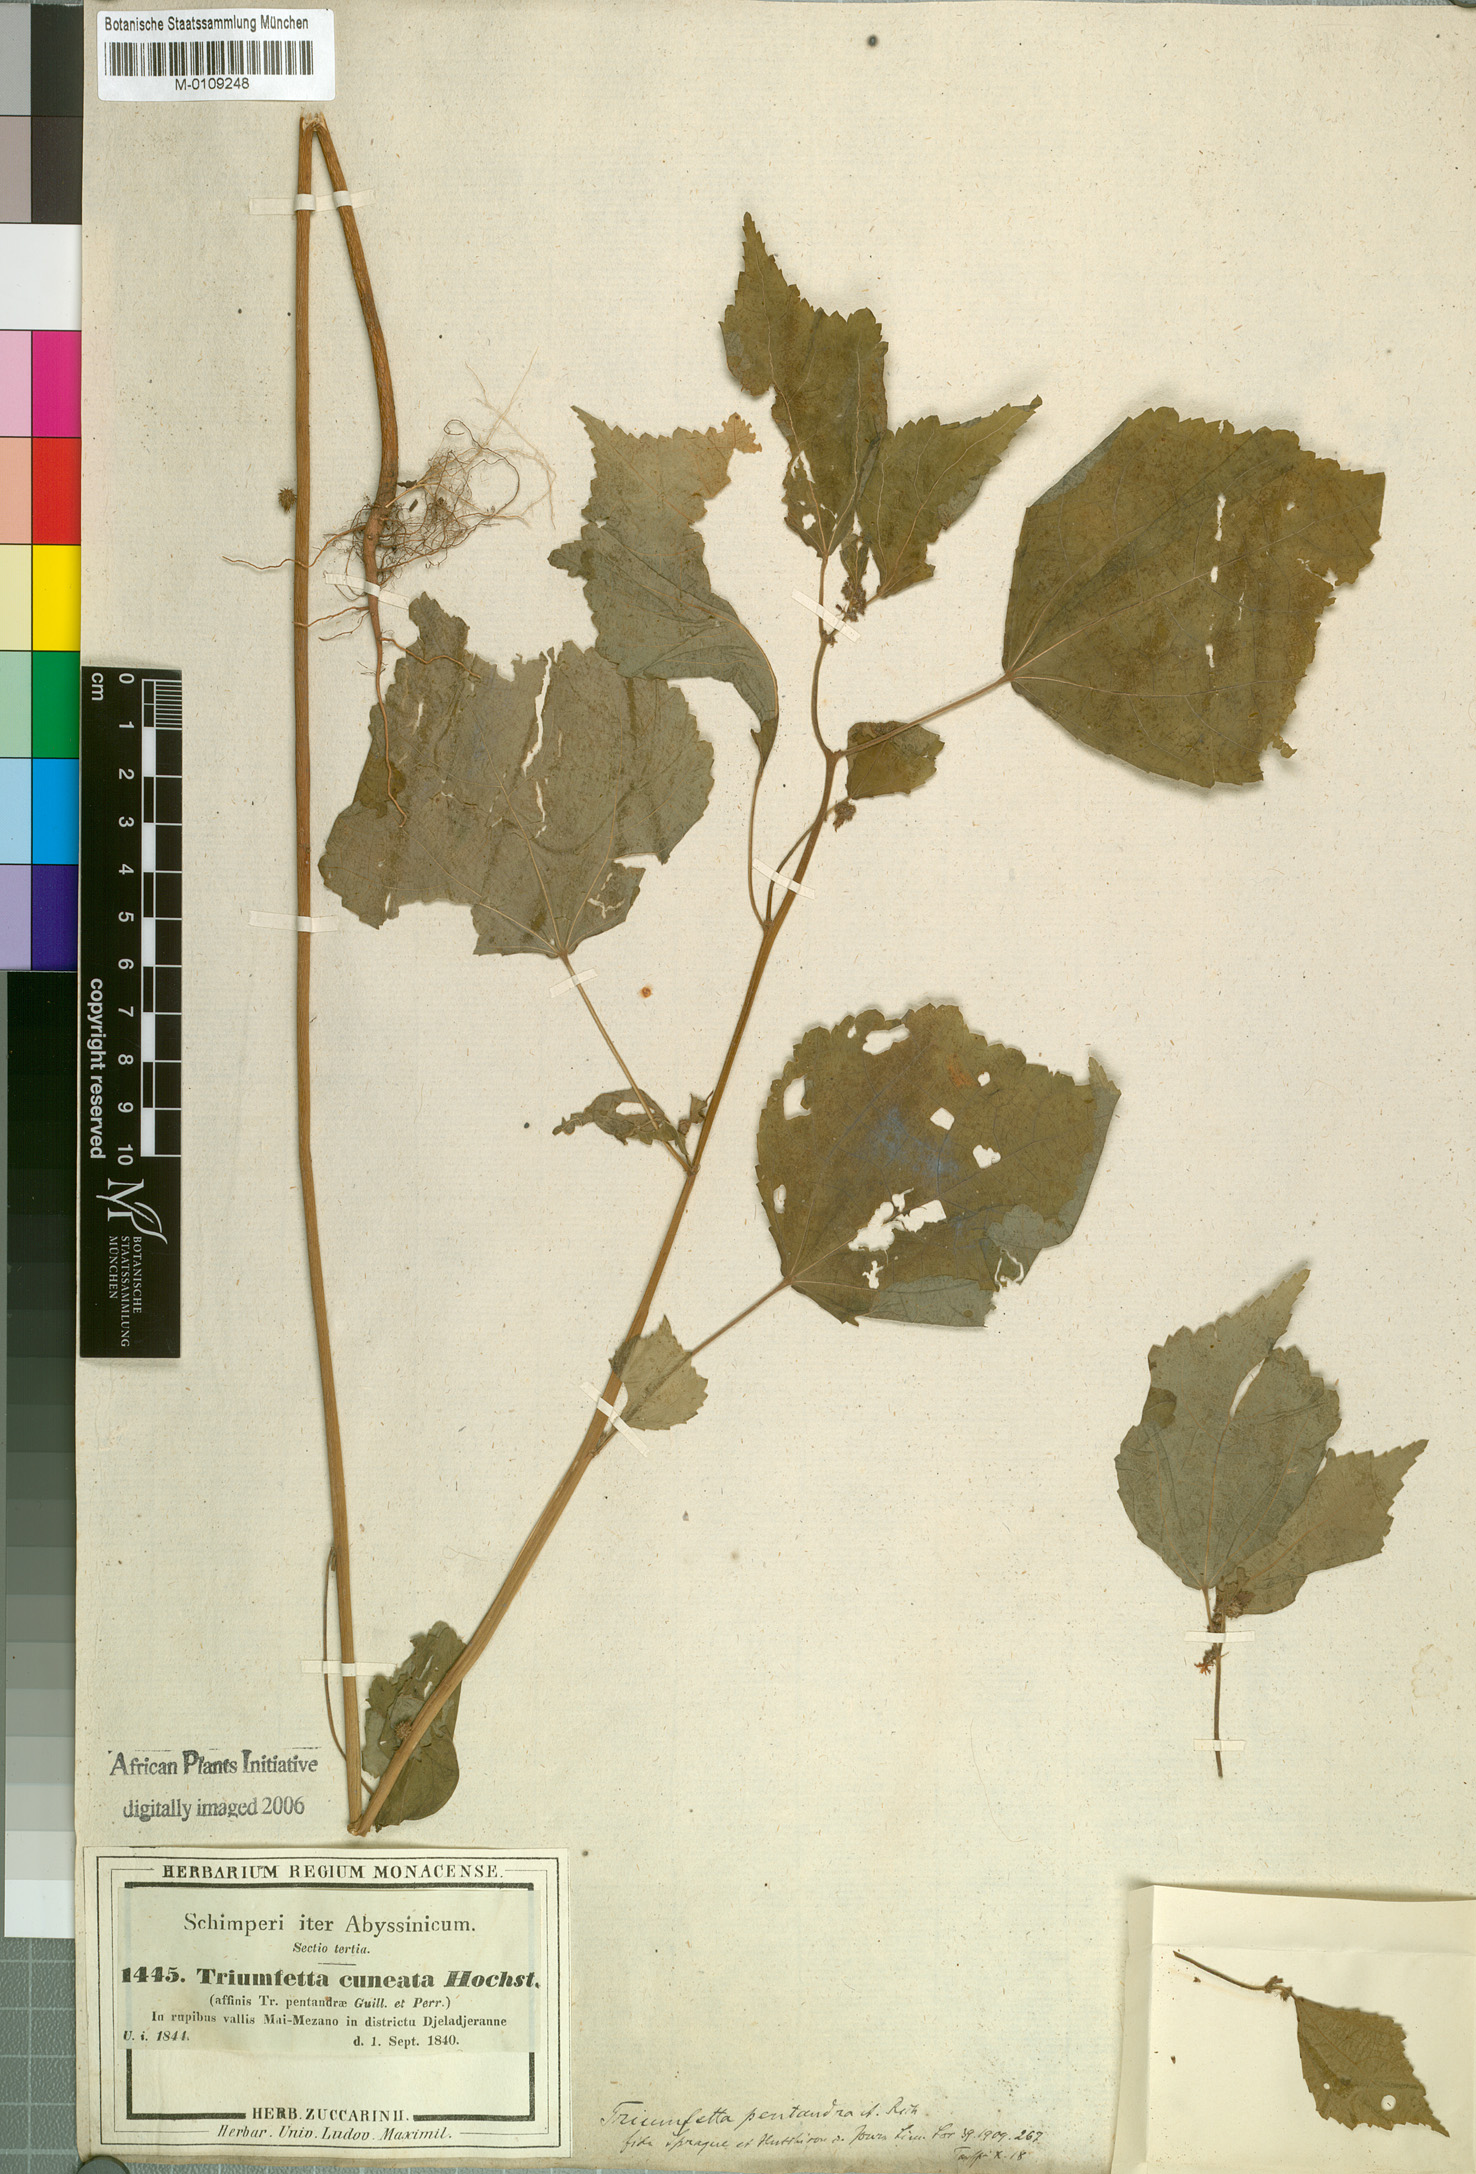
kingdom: Plantae
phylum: Tracheophyta
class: Magnoliopsida
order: Malvales
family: Malvaceae
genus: Triumfetta
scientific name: Triumfetta pentandra
